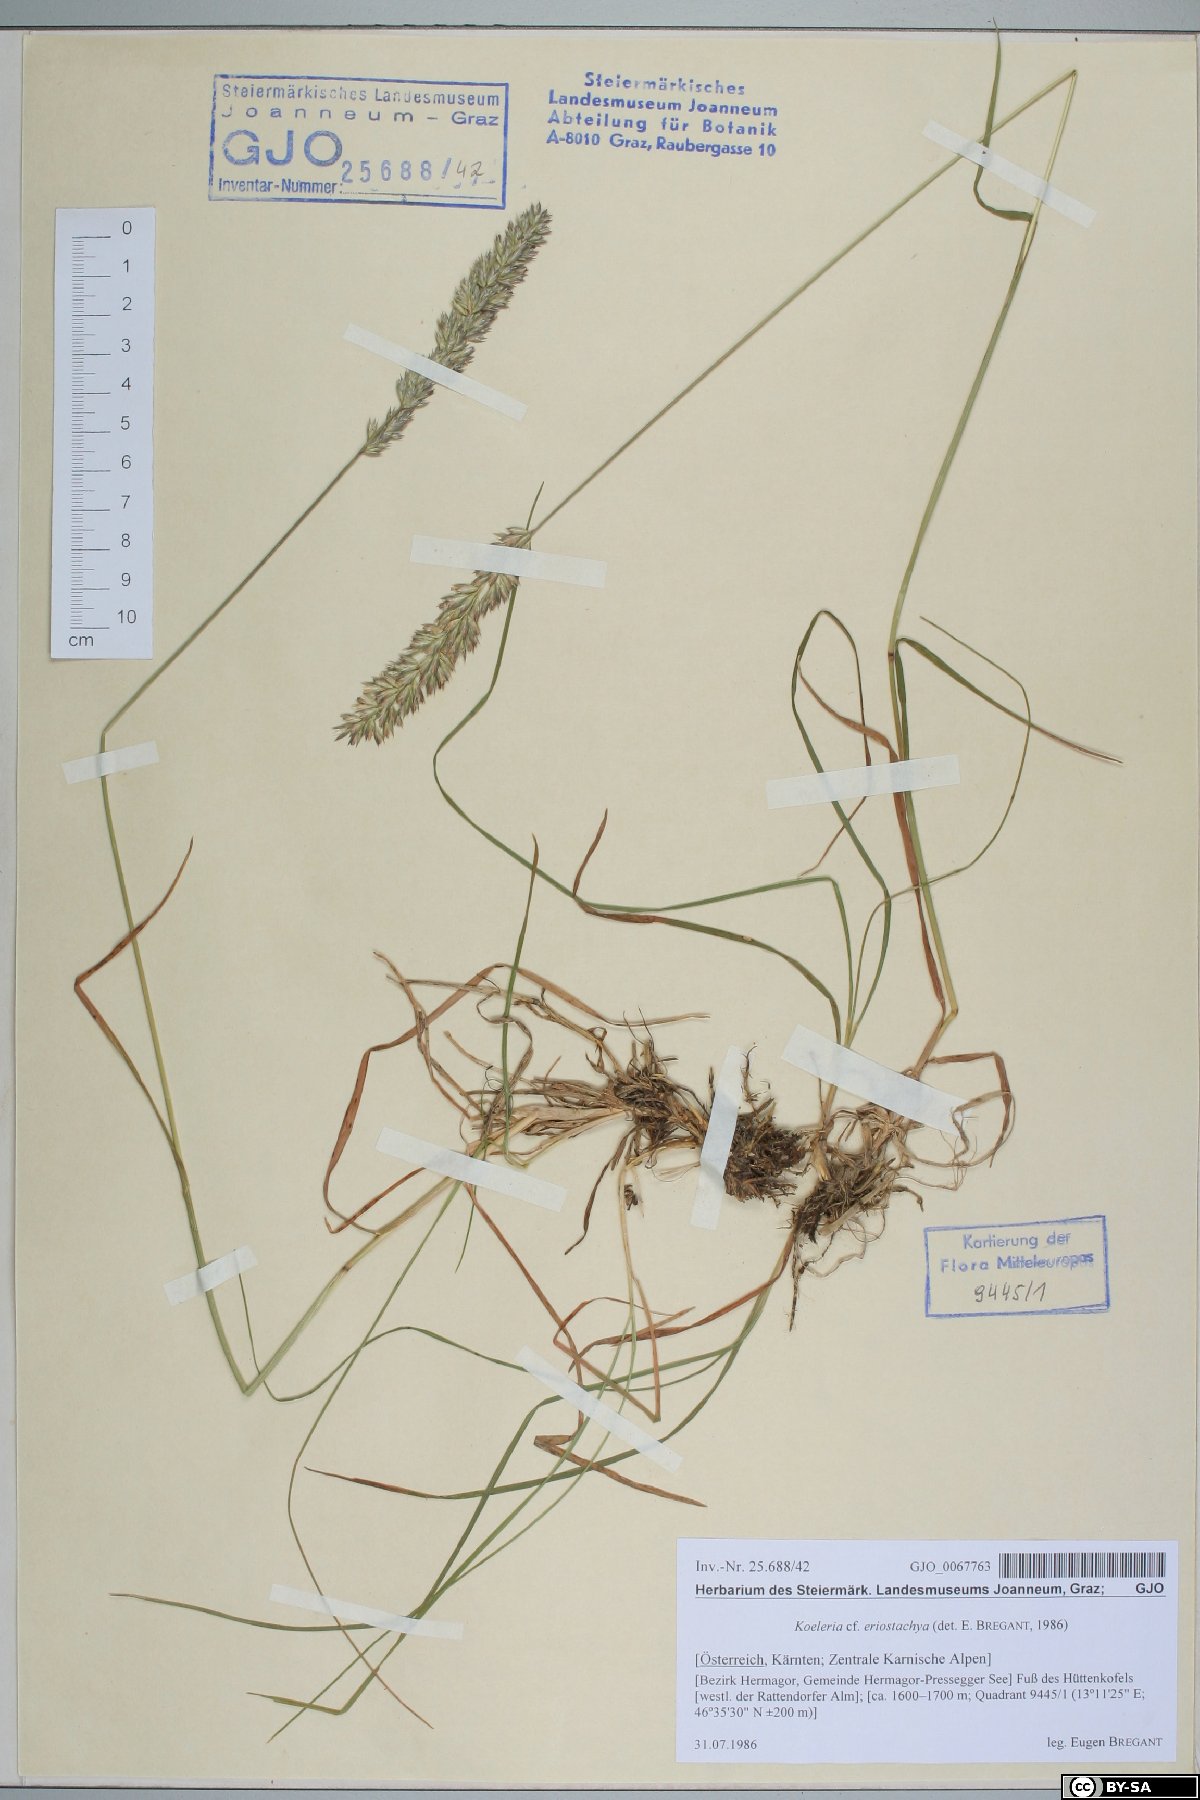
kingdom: Plantae
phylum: Tracheophyta
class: Liliopsida
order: Poales
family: Poaceae
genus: Koeleria
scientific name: Koeleria eriostachya
